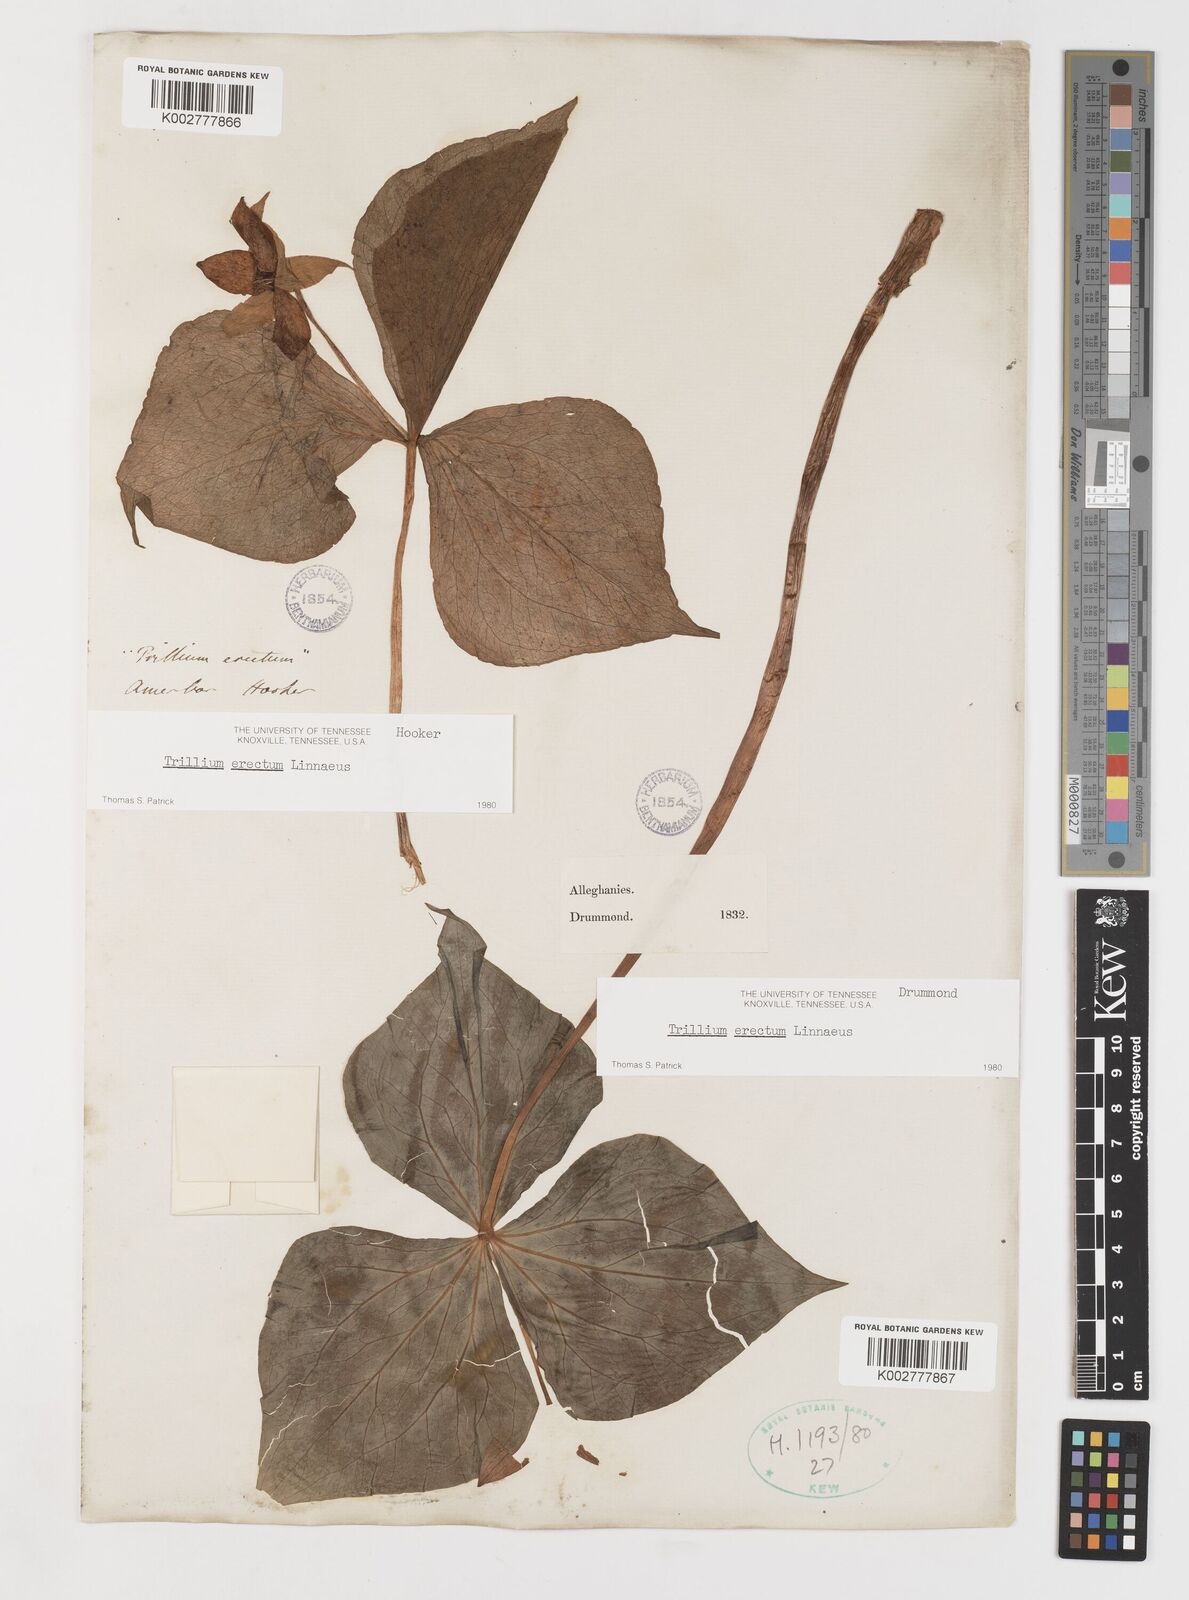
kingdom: Plantae
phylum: Tracheophyta
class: Liliopsida
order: Liliales
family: Melanthiaceae
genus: Trillium
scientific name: Trillium erectum
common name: Purple trillium
